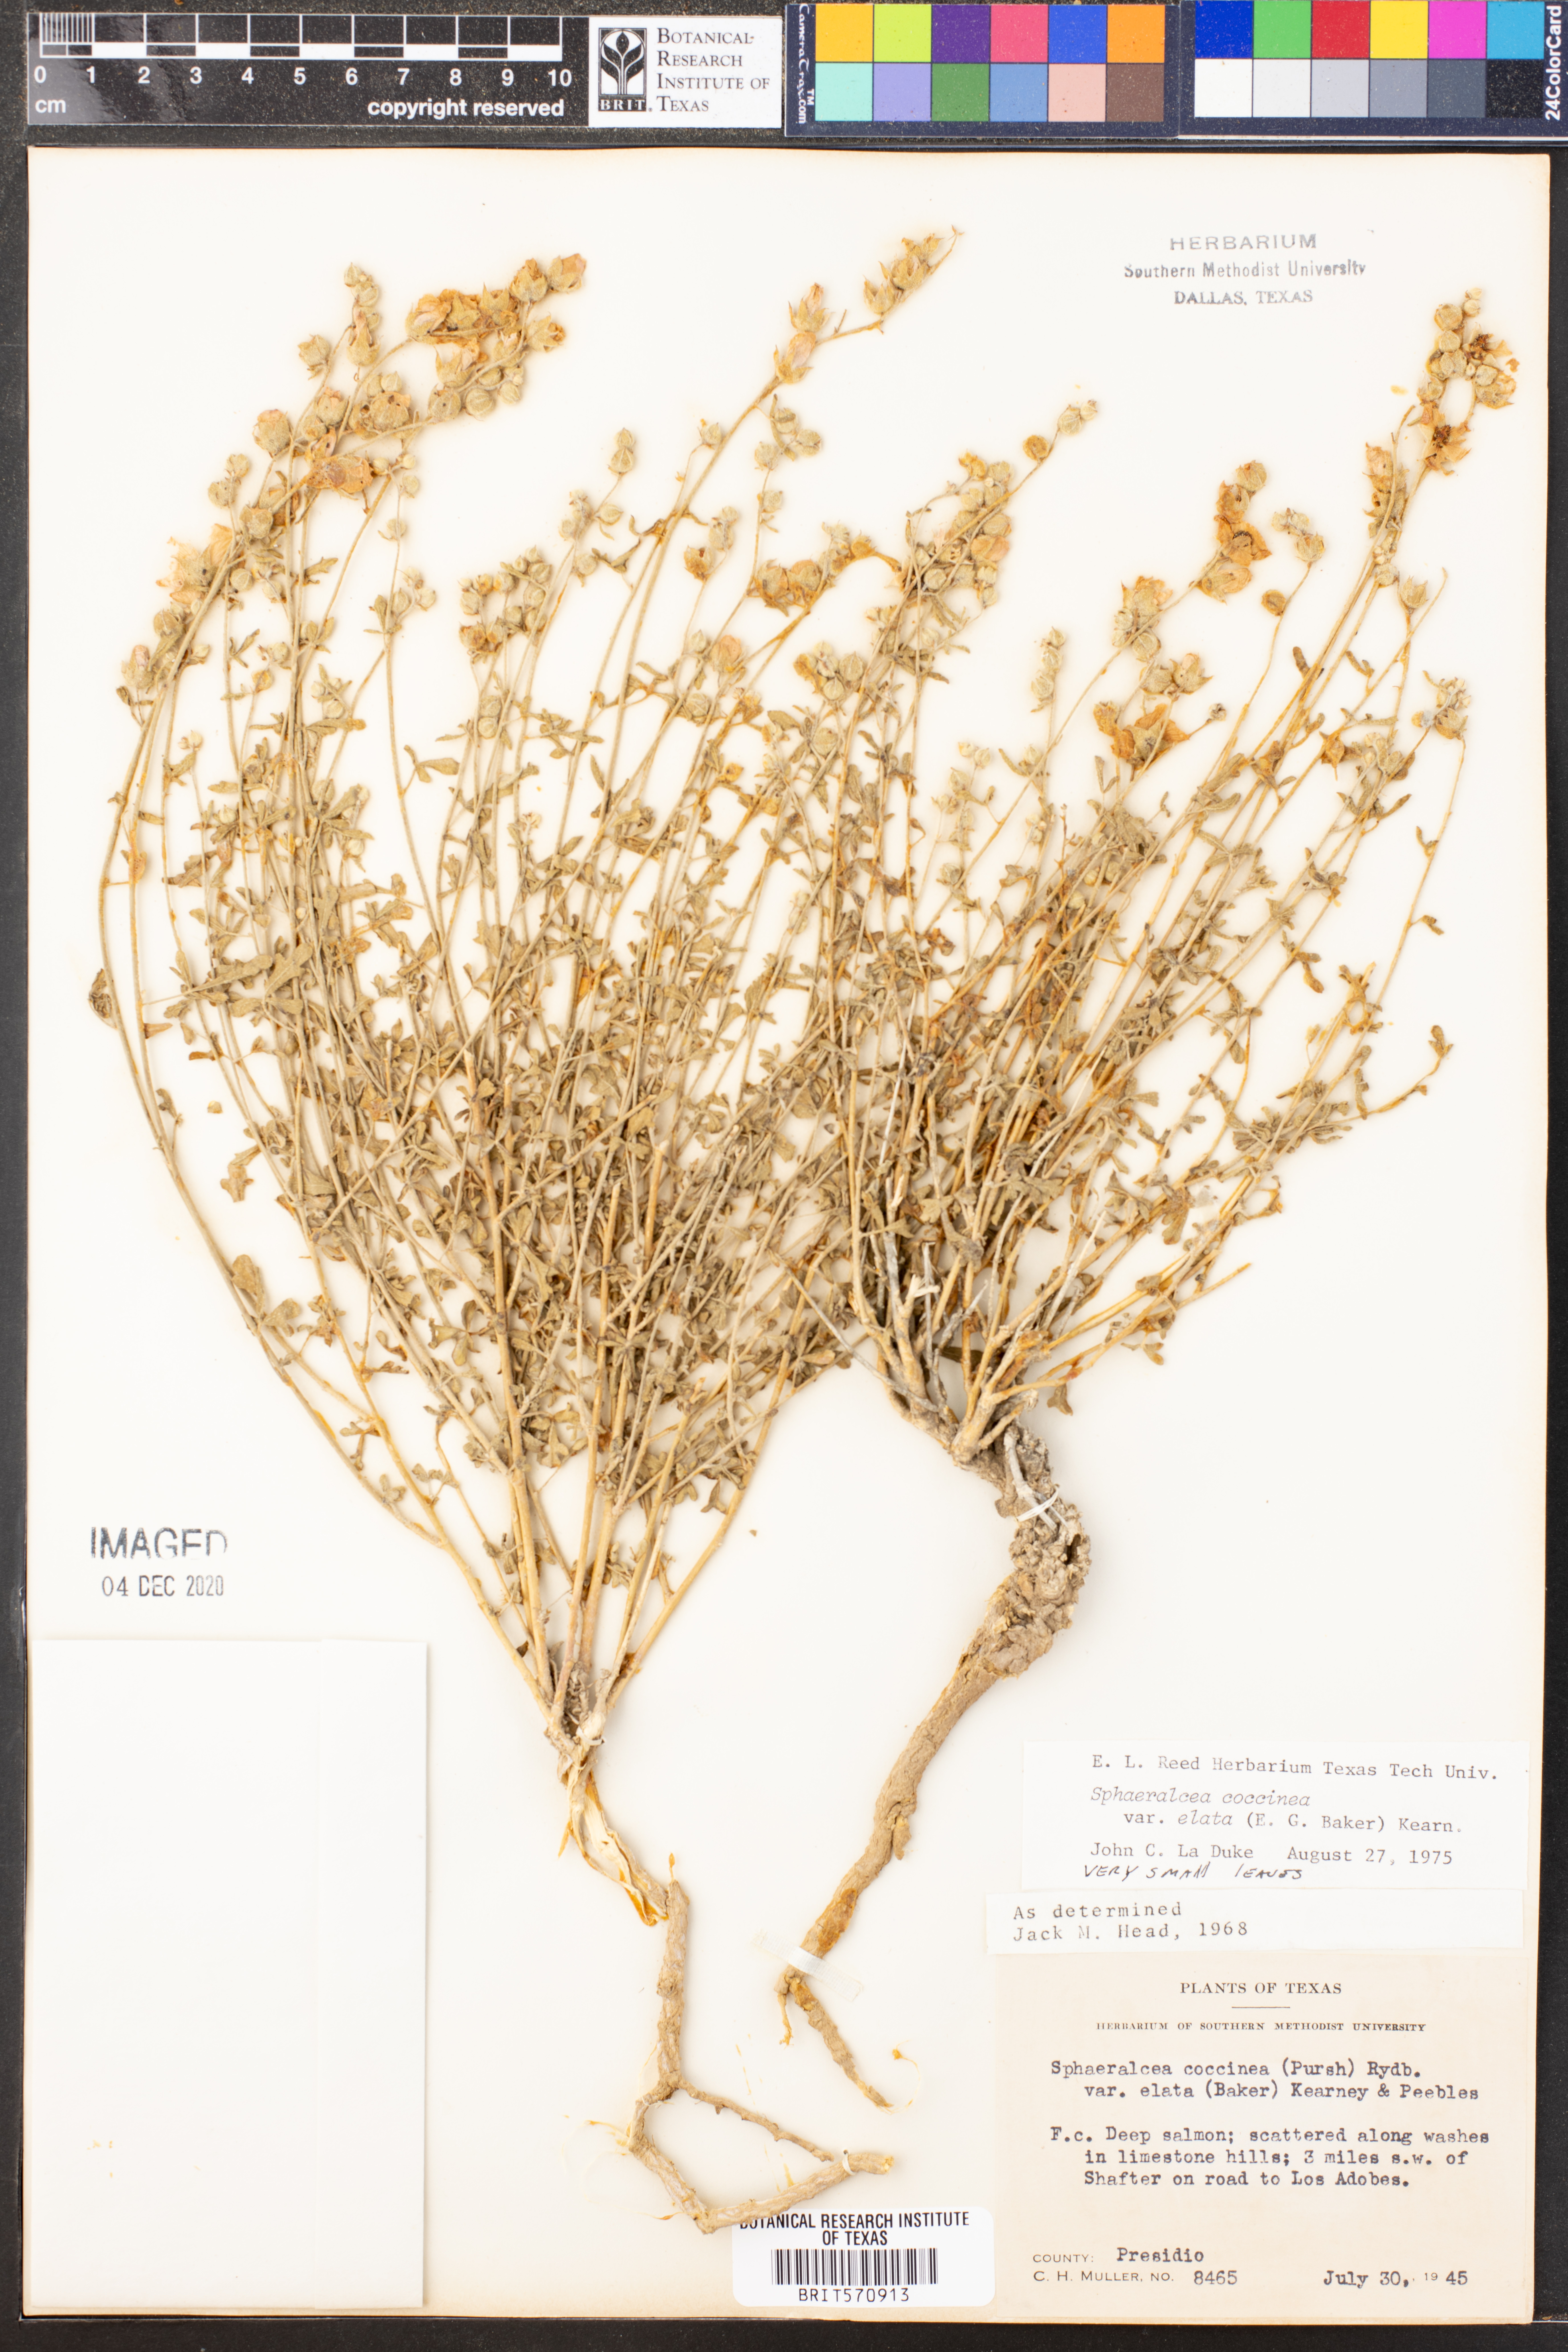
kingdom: Plantae
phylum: Tracheophyta
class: Magnoliopsida
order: Malvales
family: Malvaceae
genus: Sphaeralcea
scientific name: Sphaeralcea coccinea
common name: Moss-rose
